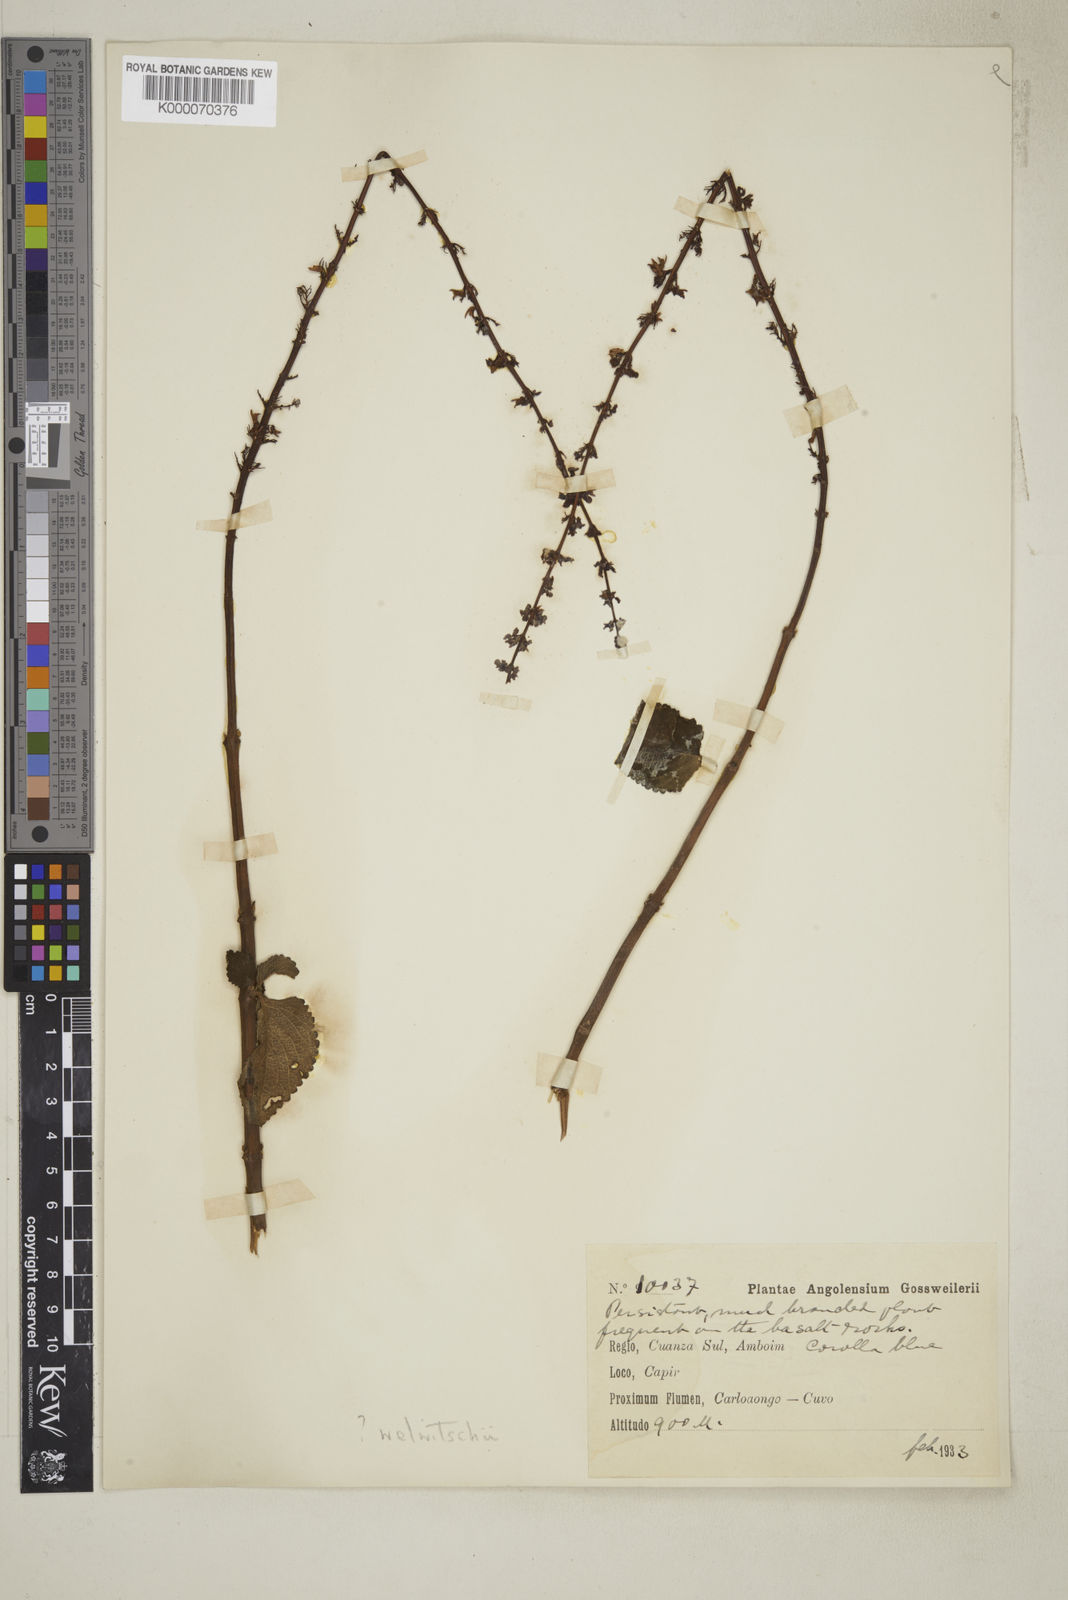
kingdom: Plantae
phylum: Tracheophyta
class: Magnoliopsida
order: Lamiales
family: Lamiaceae
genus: Coleus
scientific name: Coleus welwitschii
